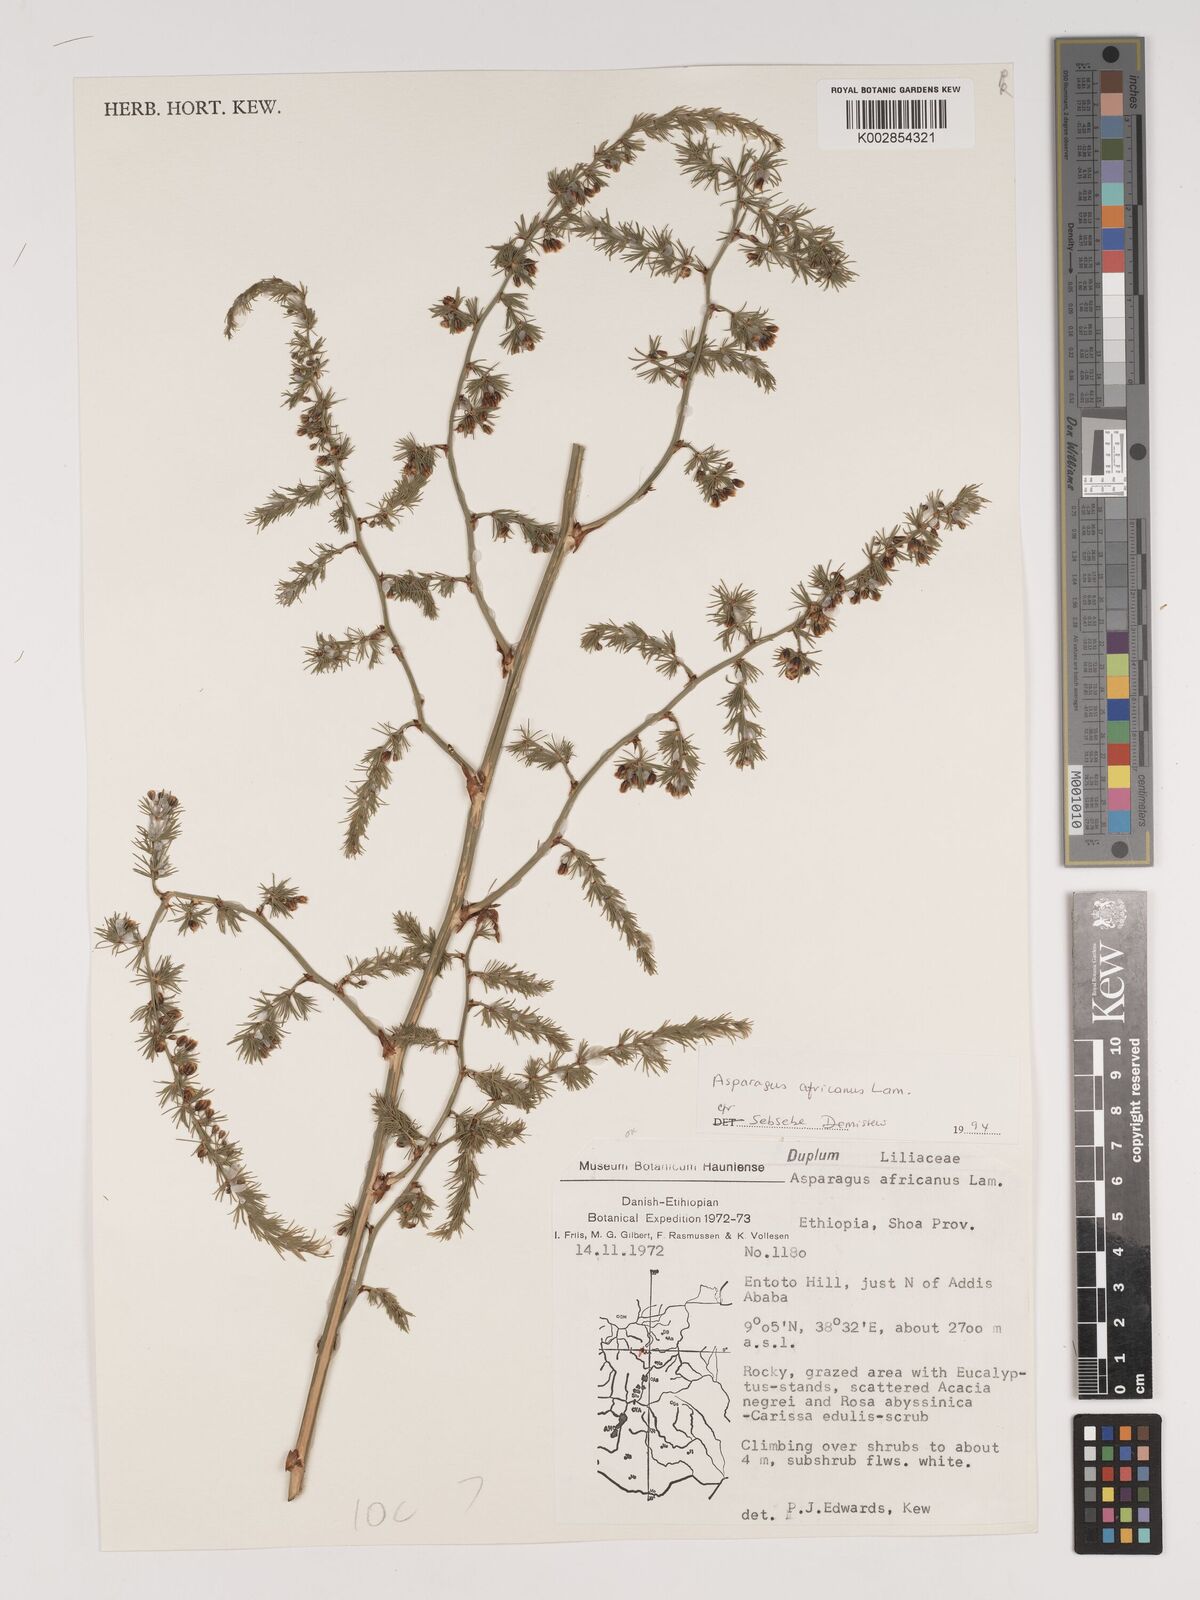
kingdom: Plantae
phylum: Tracheophyta
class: Liliopsida
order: Asparagales
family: Asparagaceae
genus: Asparagus
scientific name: Asparagus africanus
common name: Asparagus-fern
